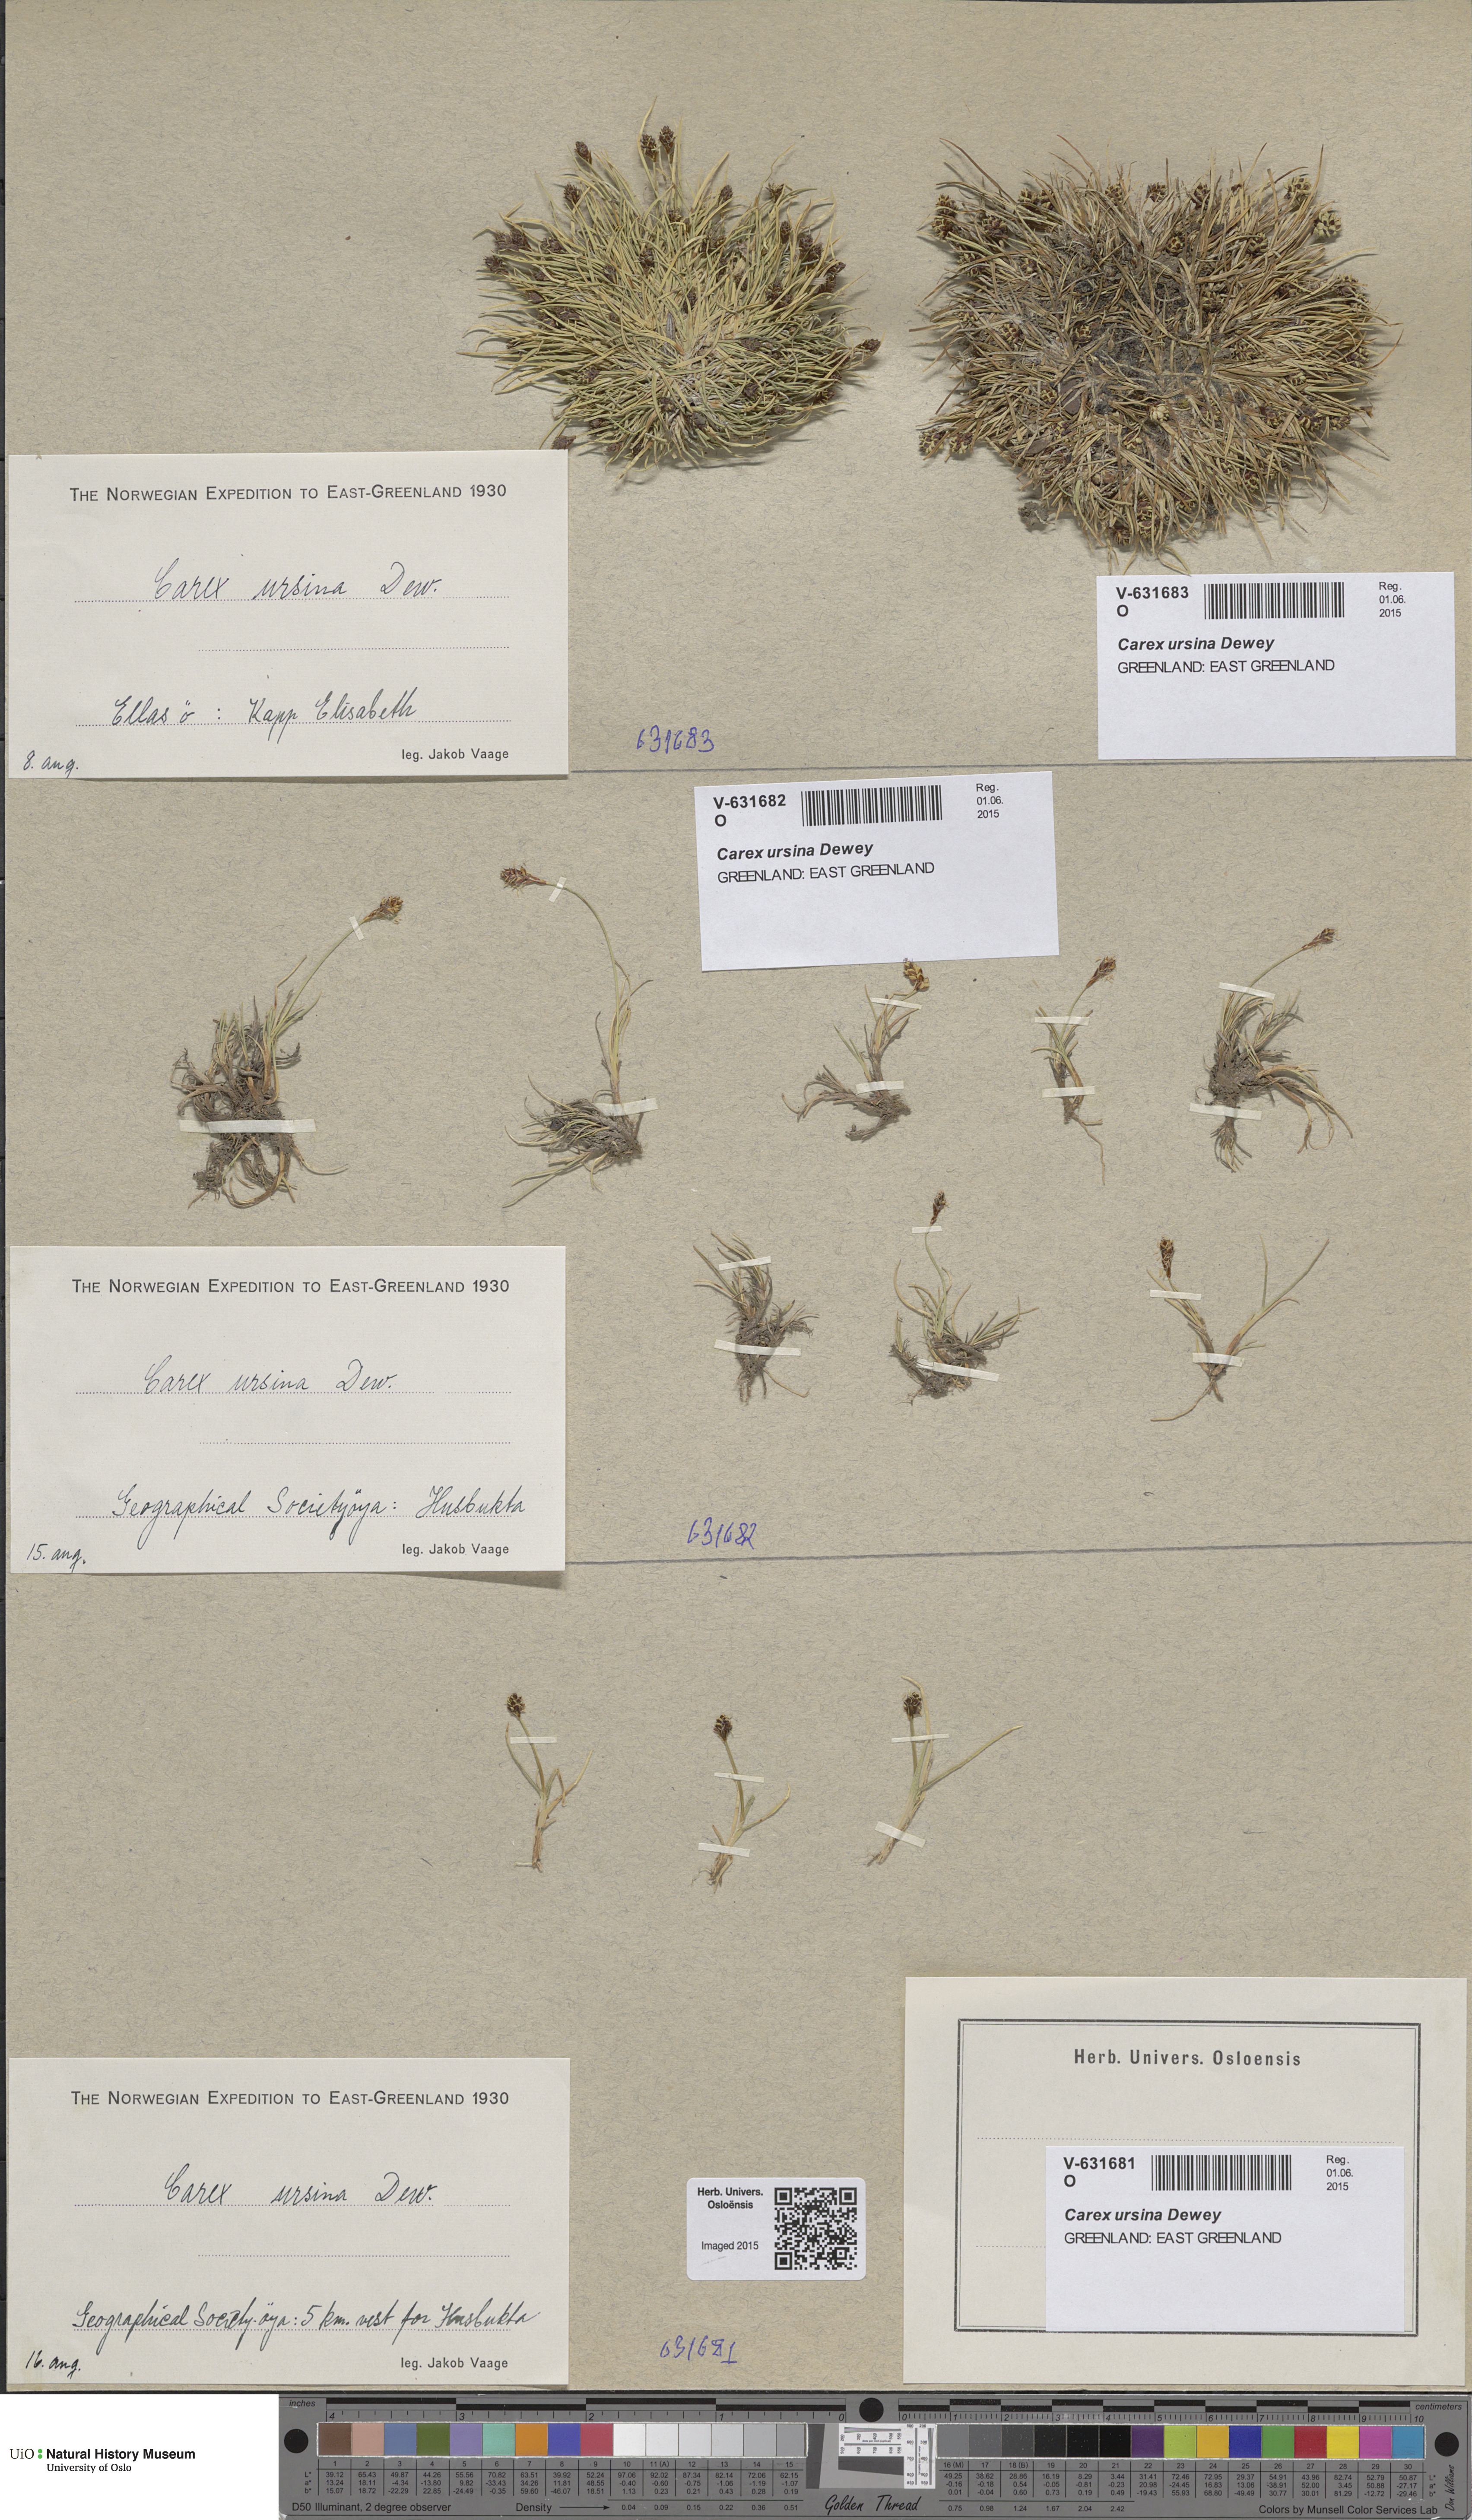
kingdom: Plantae
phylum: Tracheophyta
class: Liliopsida
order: Poales
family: Cyperaceae
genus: Carex
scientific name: Carex ursina
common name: Bear sedge
